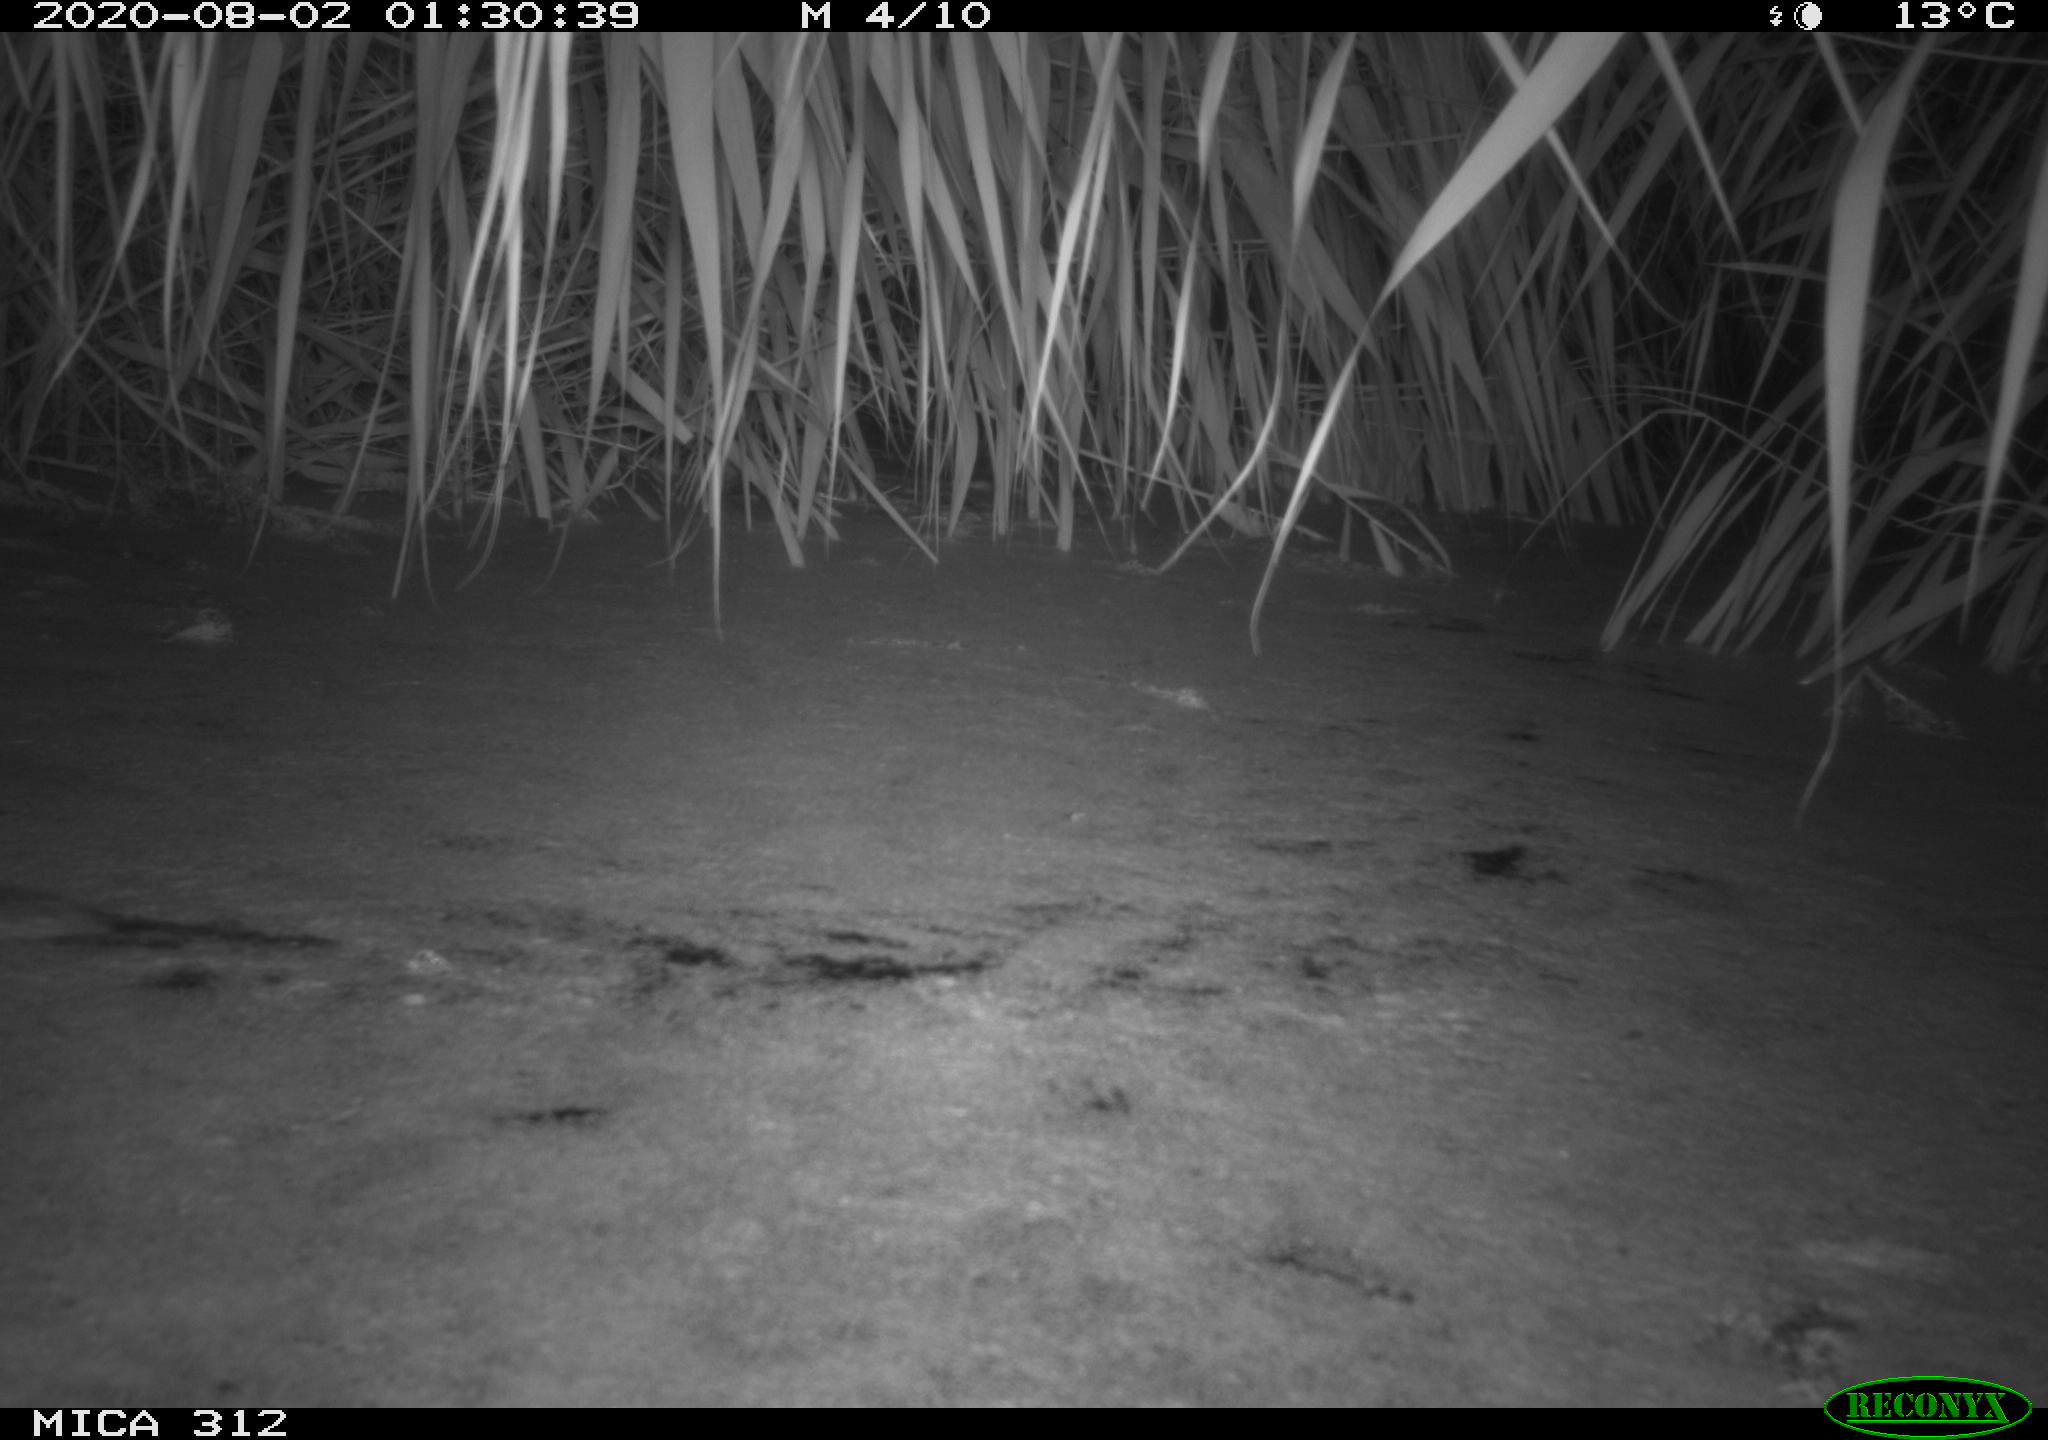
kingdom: Animalia
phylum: Chordata
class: Mammalia
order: Rodentia
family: Muridae
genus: Rattus
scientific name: Rattus norvegicus
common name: Brown rat
